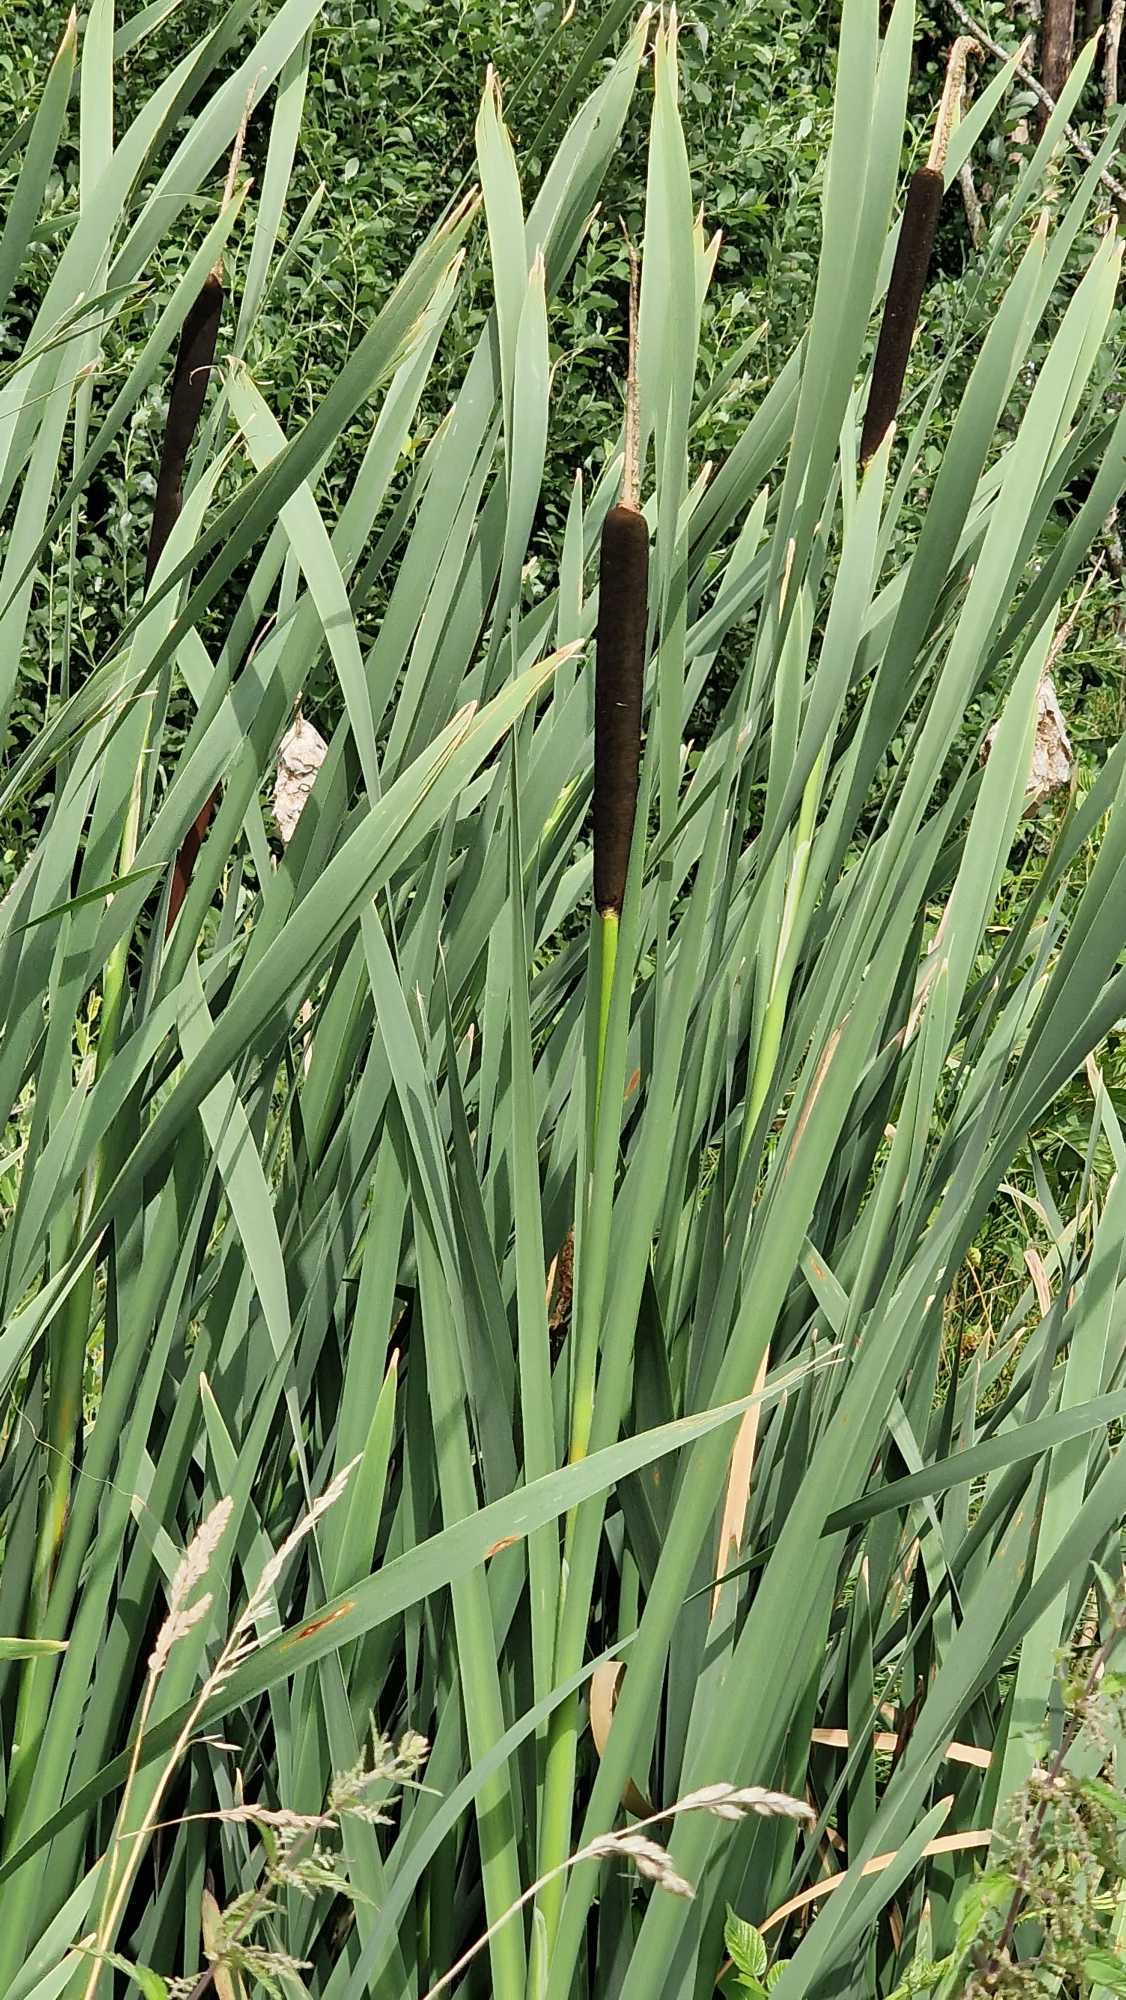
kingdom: Plantae
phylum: Tracheophyta
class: Liliopsida
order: Poales
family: Typhaceae
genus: Typha
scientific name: Typha latifolia
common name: Bredbladet dunhammer
